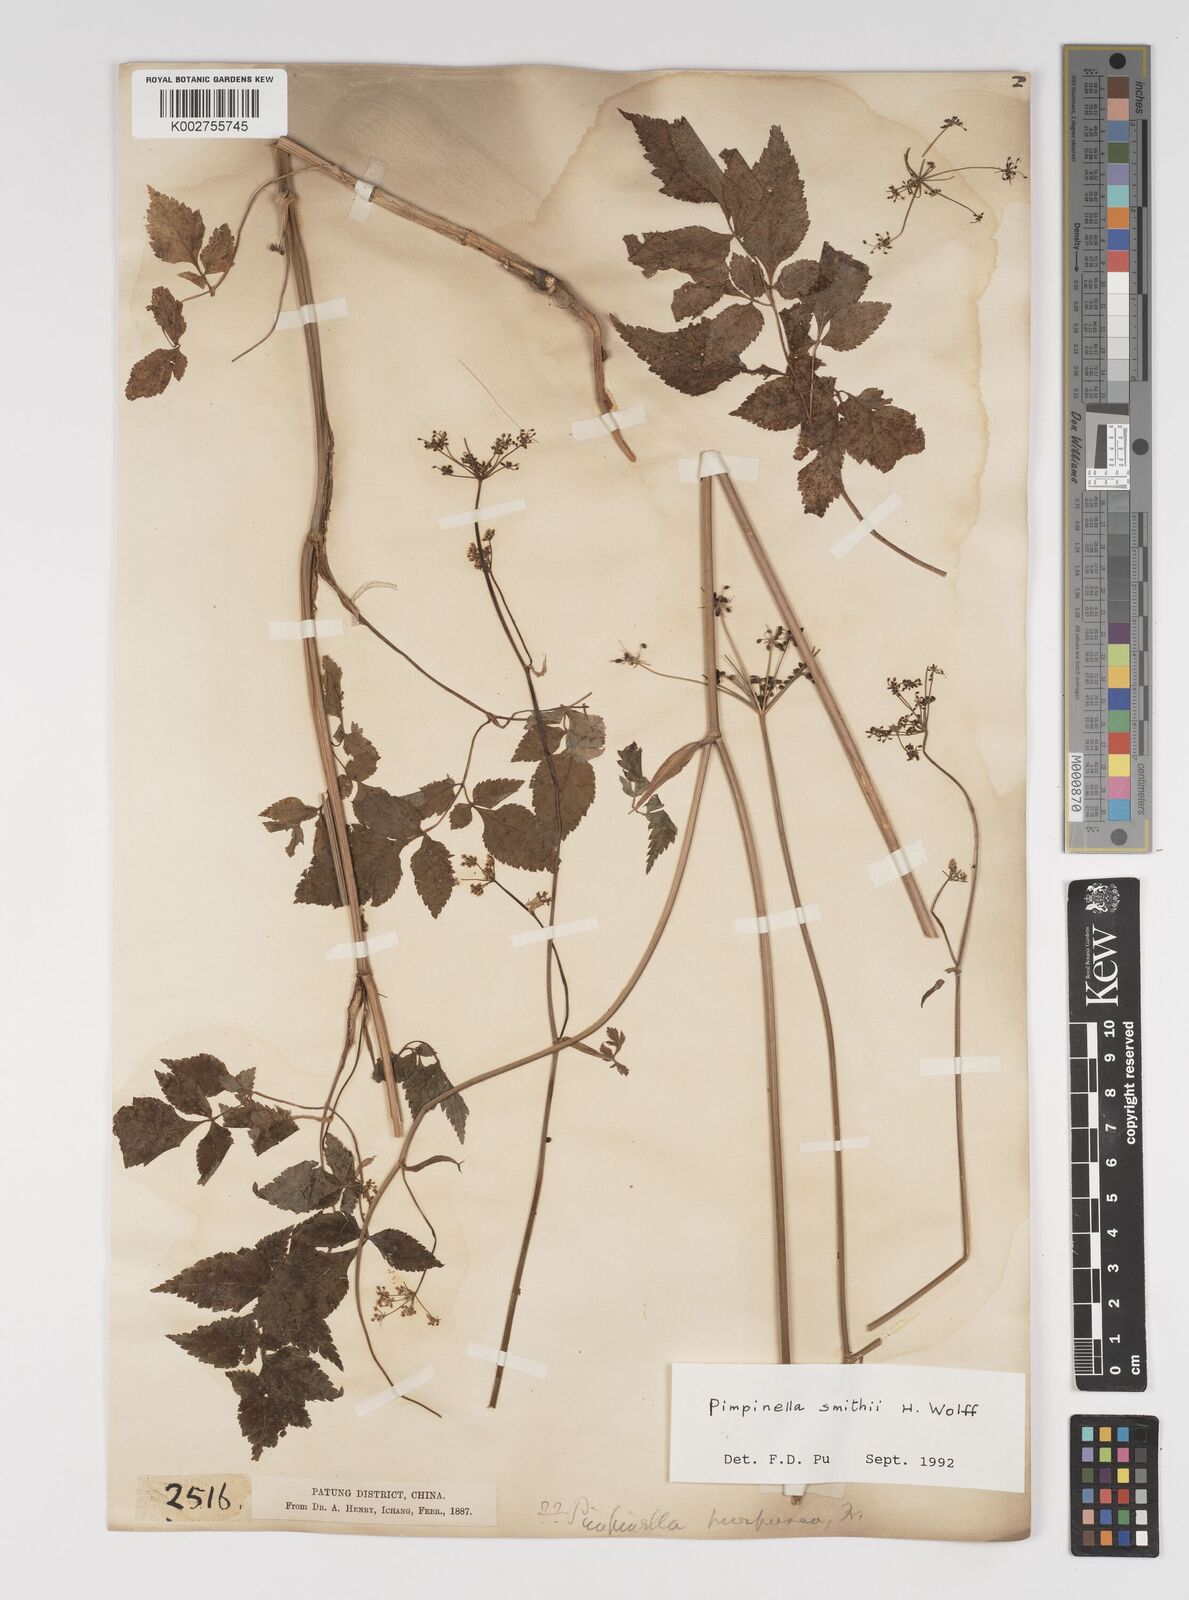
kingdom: Plantae
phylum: Tracheophyta
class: Magnoliopsida
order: Apiales
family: Apiaceae
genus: Pimpinella
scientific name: Pimpinella heliosciadea
